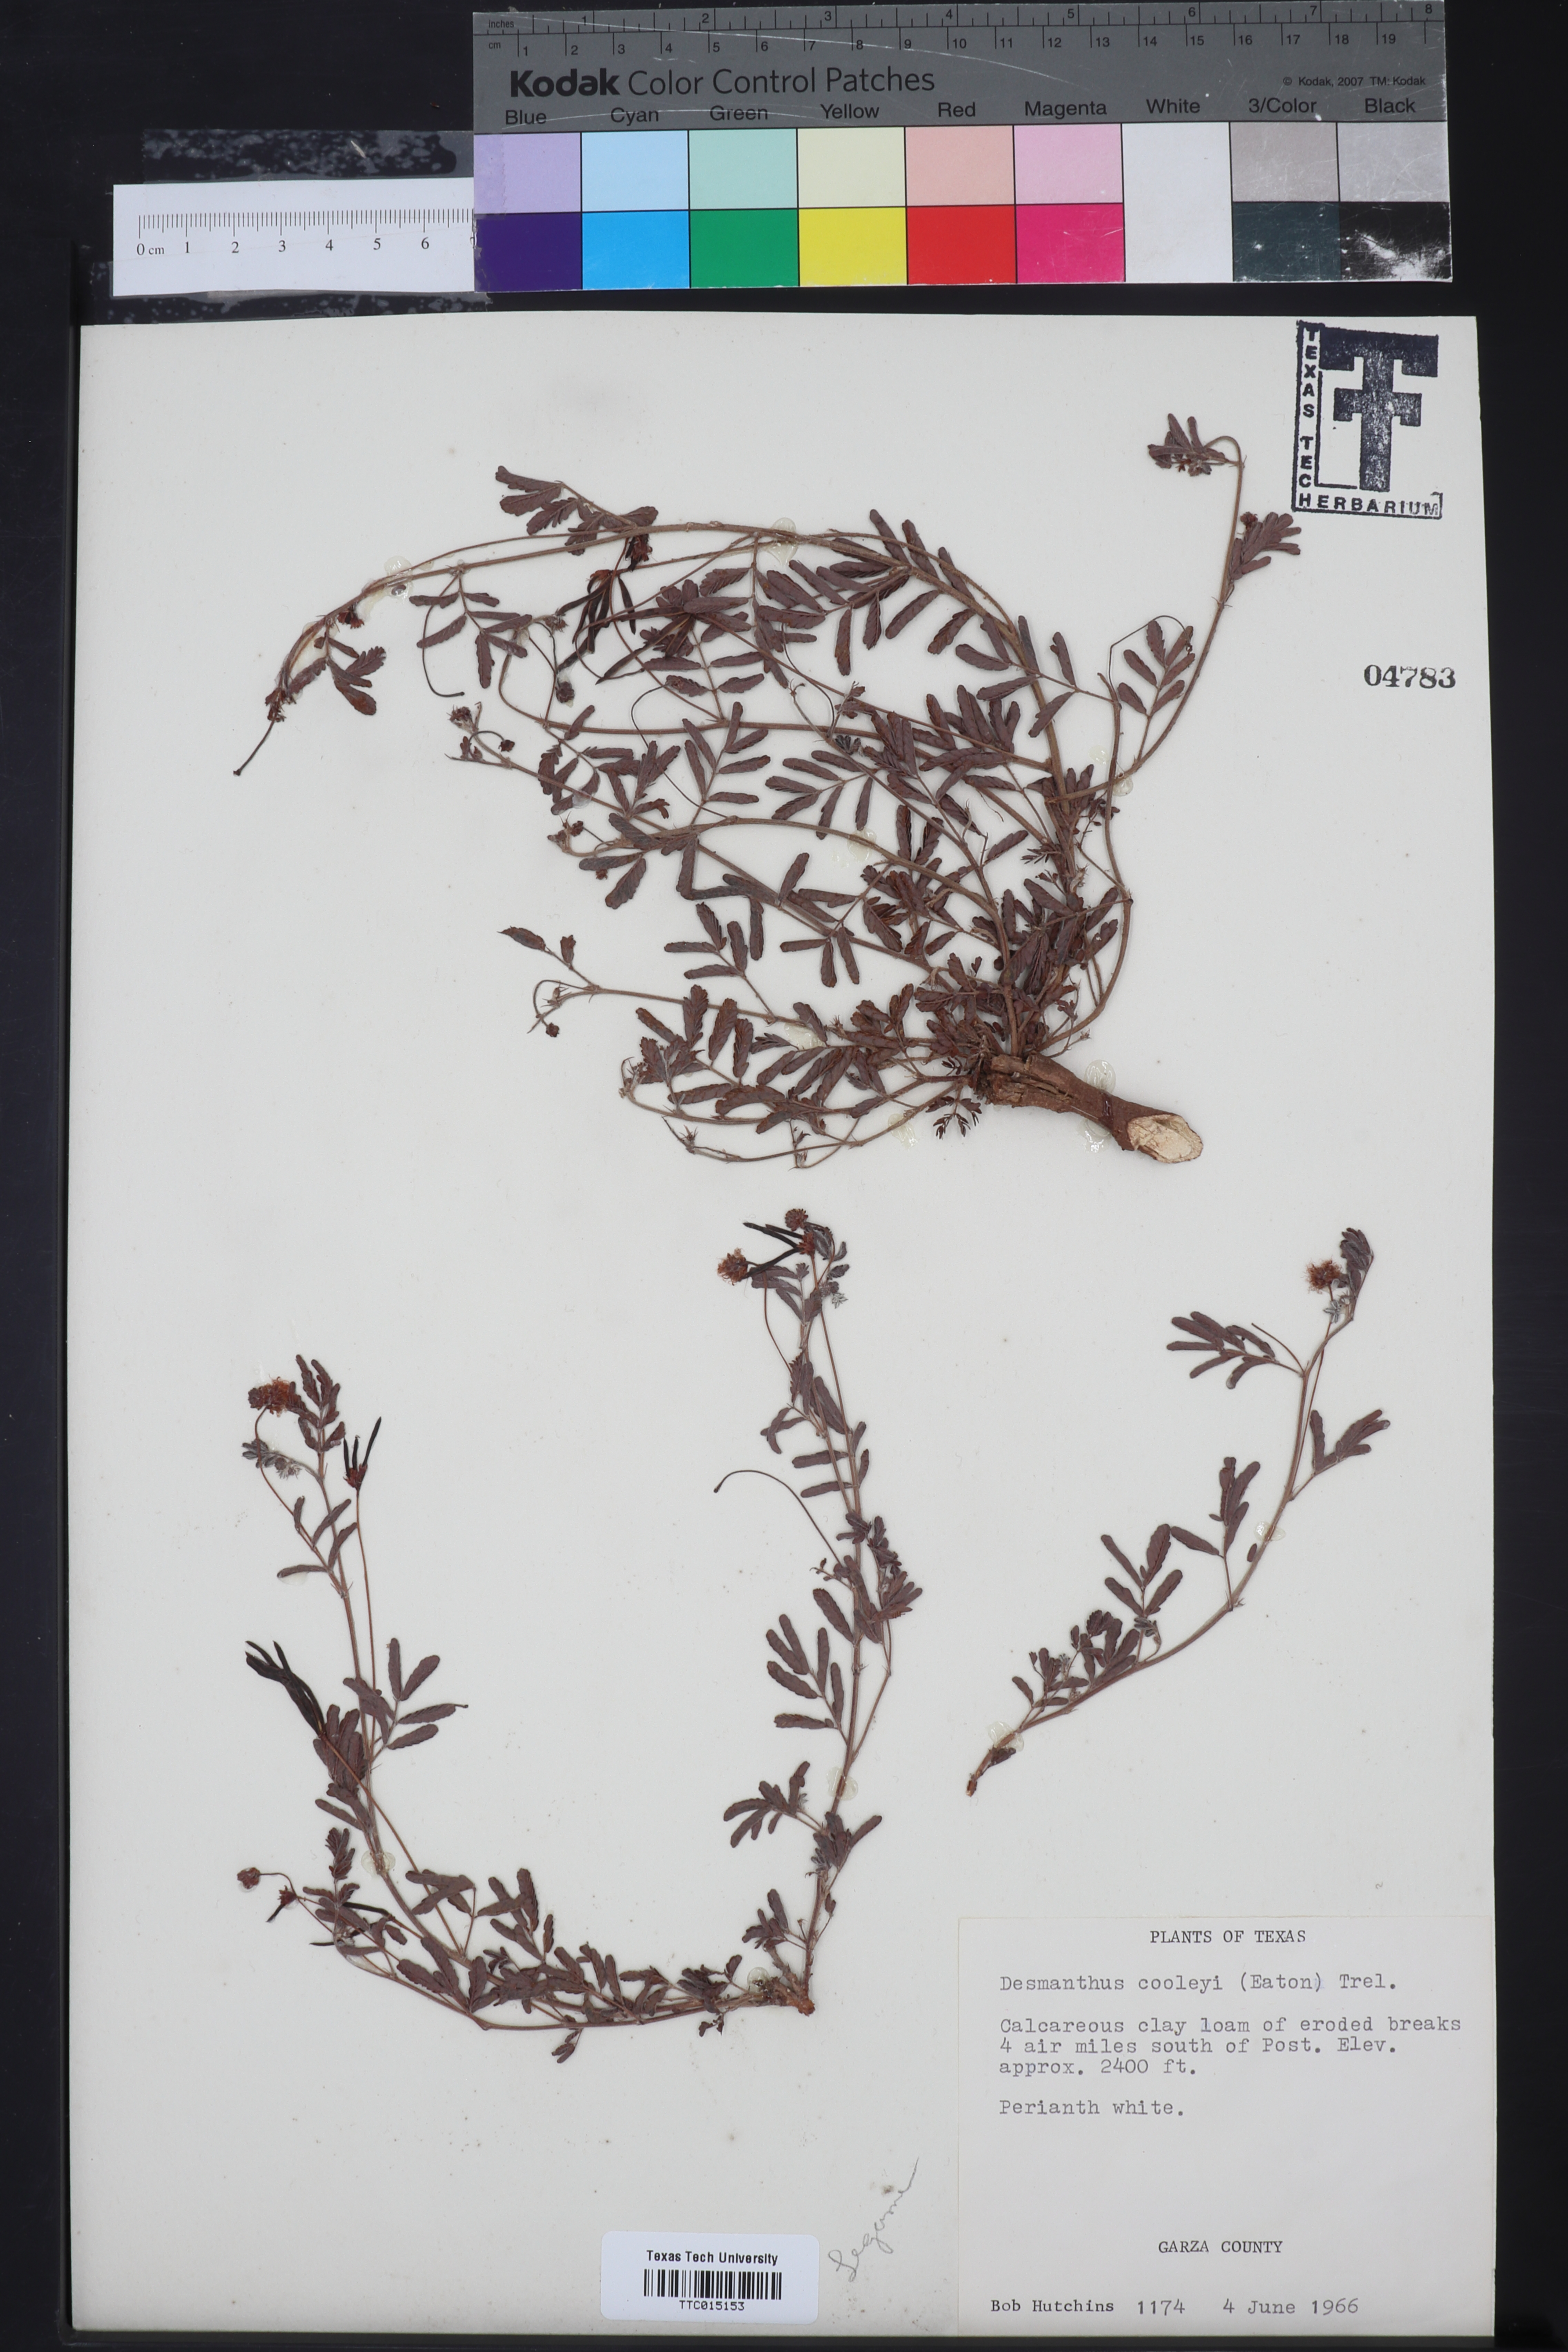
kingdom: Plantae
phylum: Tracheophyta
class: Magnoliopsida
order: Fabales
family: Fabaceae
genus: Desmanthus
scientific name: Desmanthus cooleyi
